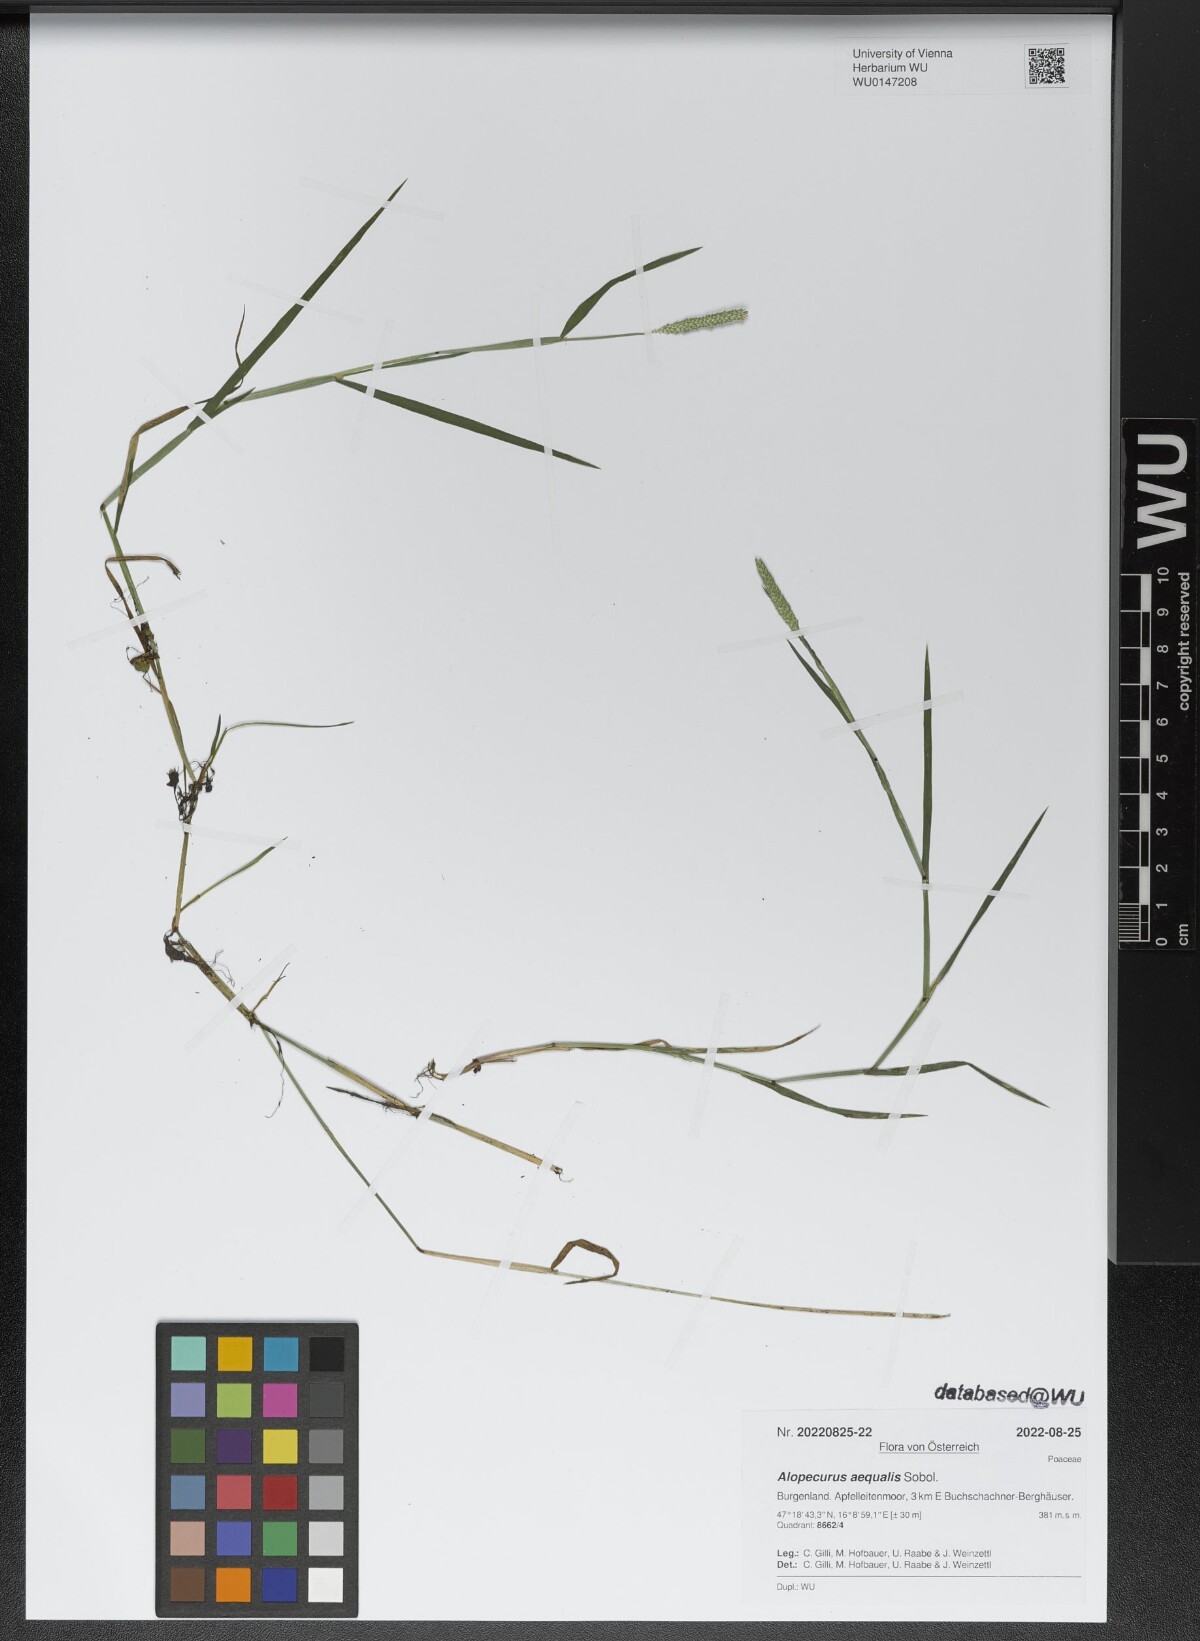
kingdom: Plantae
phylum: Tracheophyta
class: Liliopsida
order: Poales
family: Poaceae
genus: Alopecurus
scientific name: Alopecurus aequalis
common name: Orange foxtail
